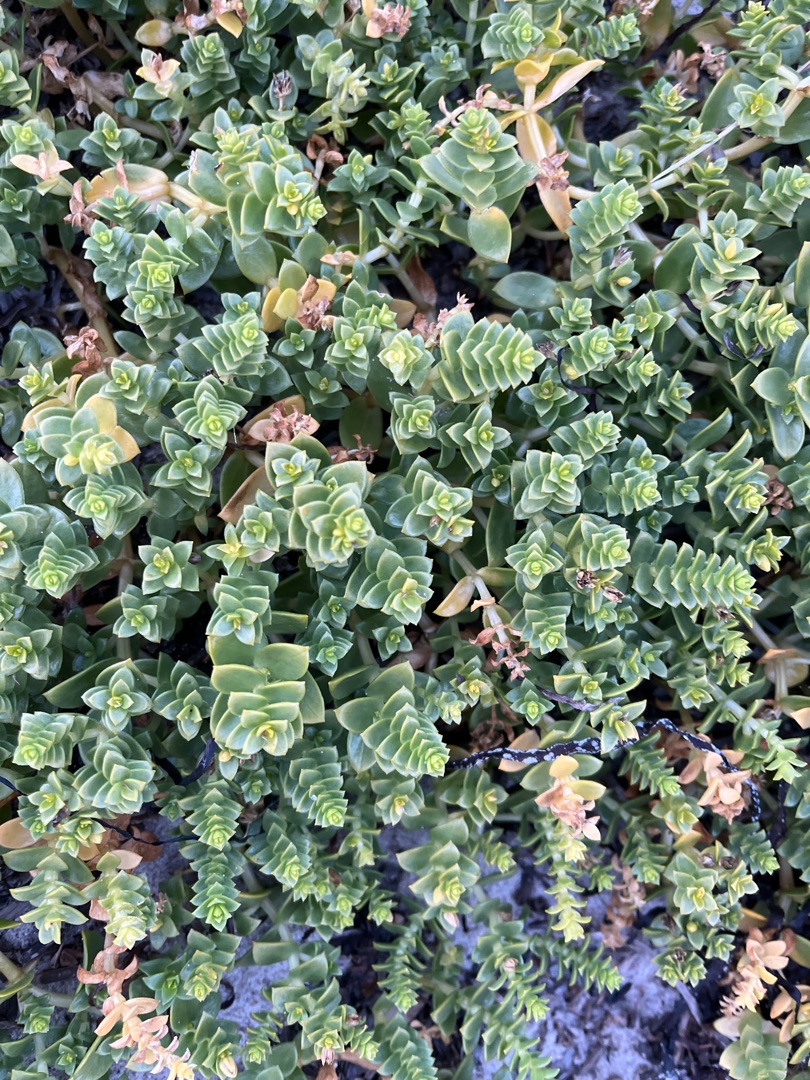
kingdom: Plantae
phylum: Tracheophyta
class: Magnoliopsida
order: Caryophyllales
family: Caryophyllaceae
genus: Honckenya
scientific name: Honckenya peploides
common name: Strandarve
